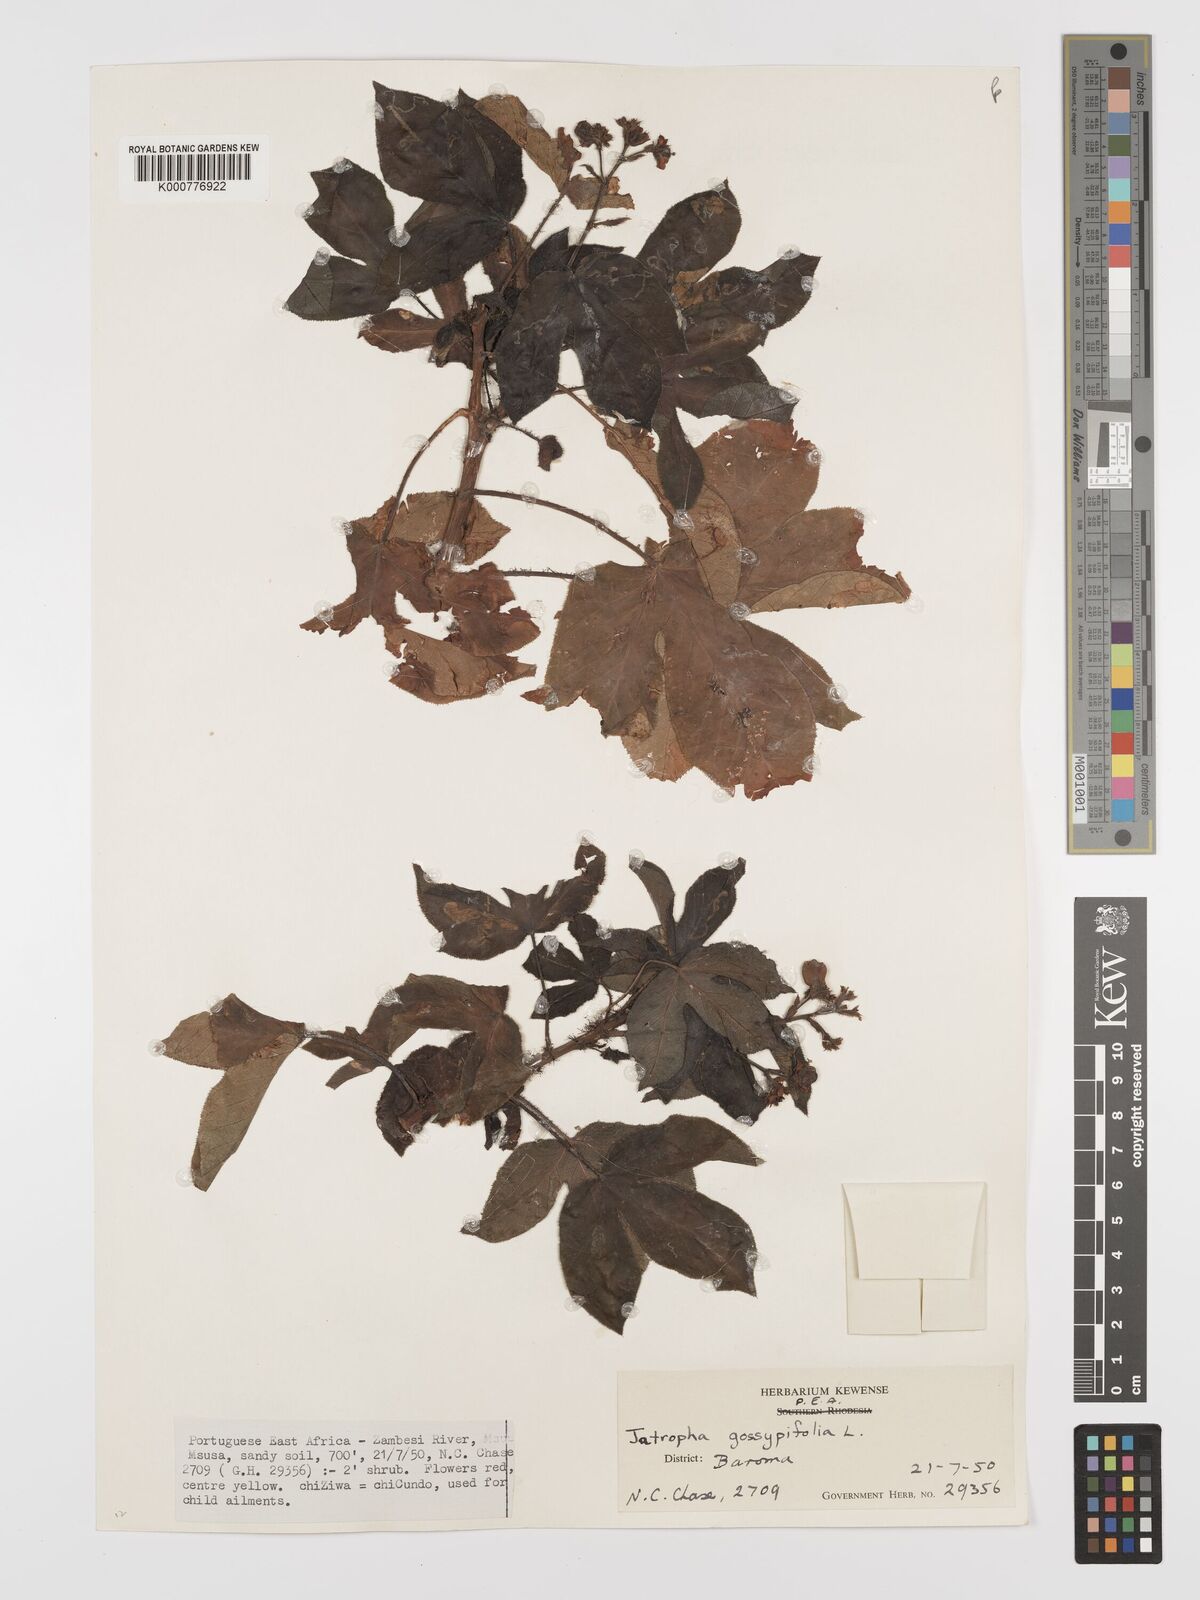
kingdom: Plantae
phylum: Tracheophyta
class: Magnoliopsida
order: Malpighiales
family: Euphorbiaceae
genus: Jatropha
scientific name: Jatropha gossypiifolia
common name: Bellyache bush
